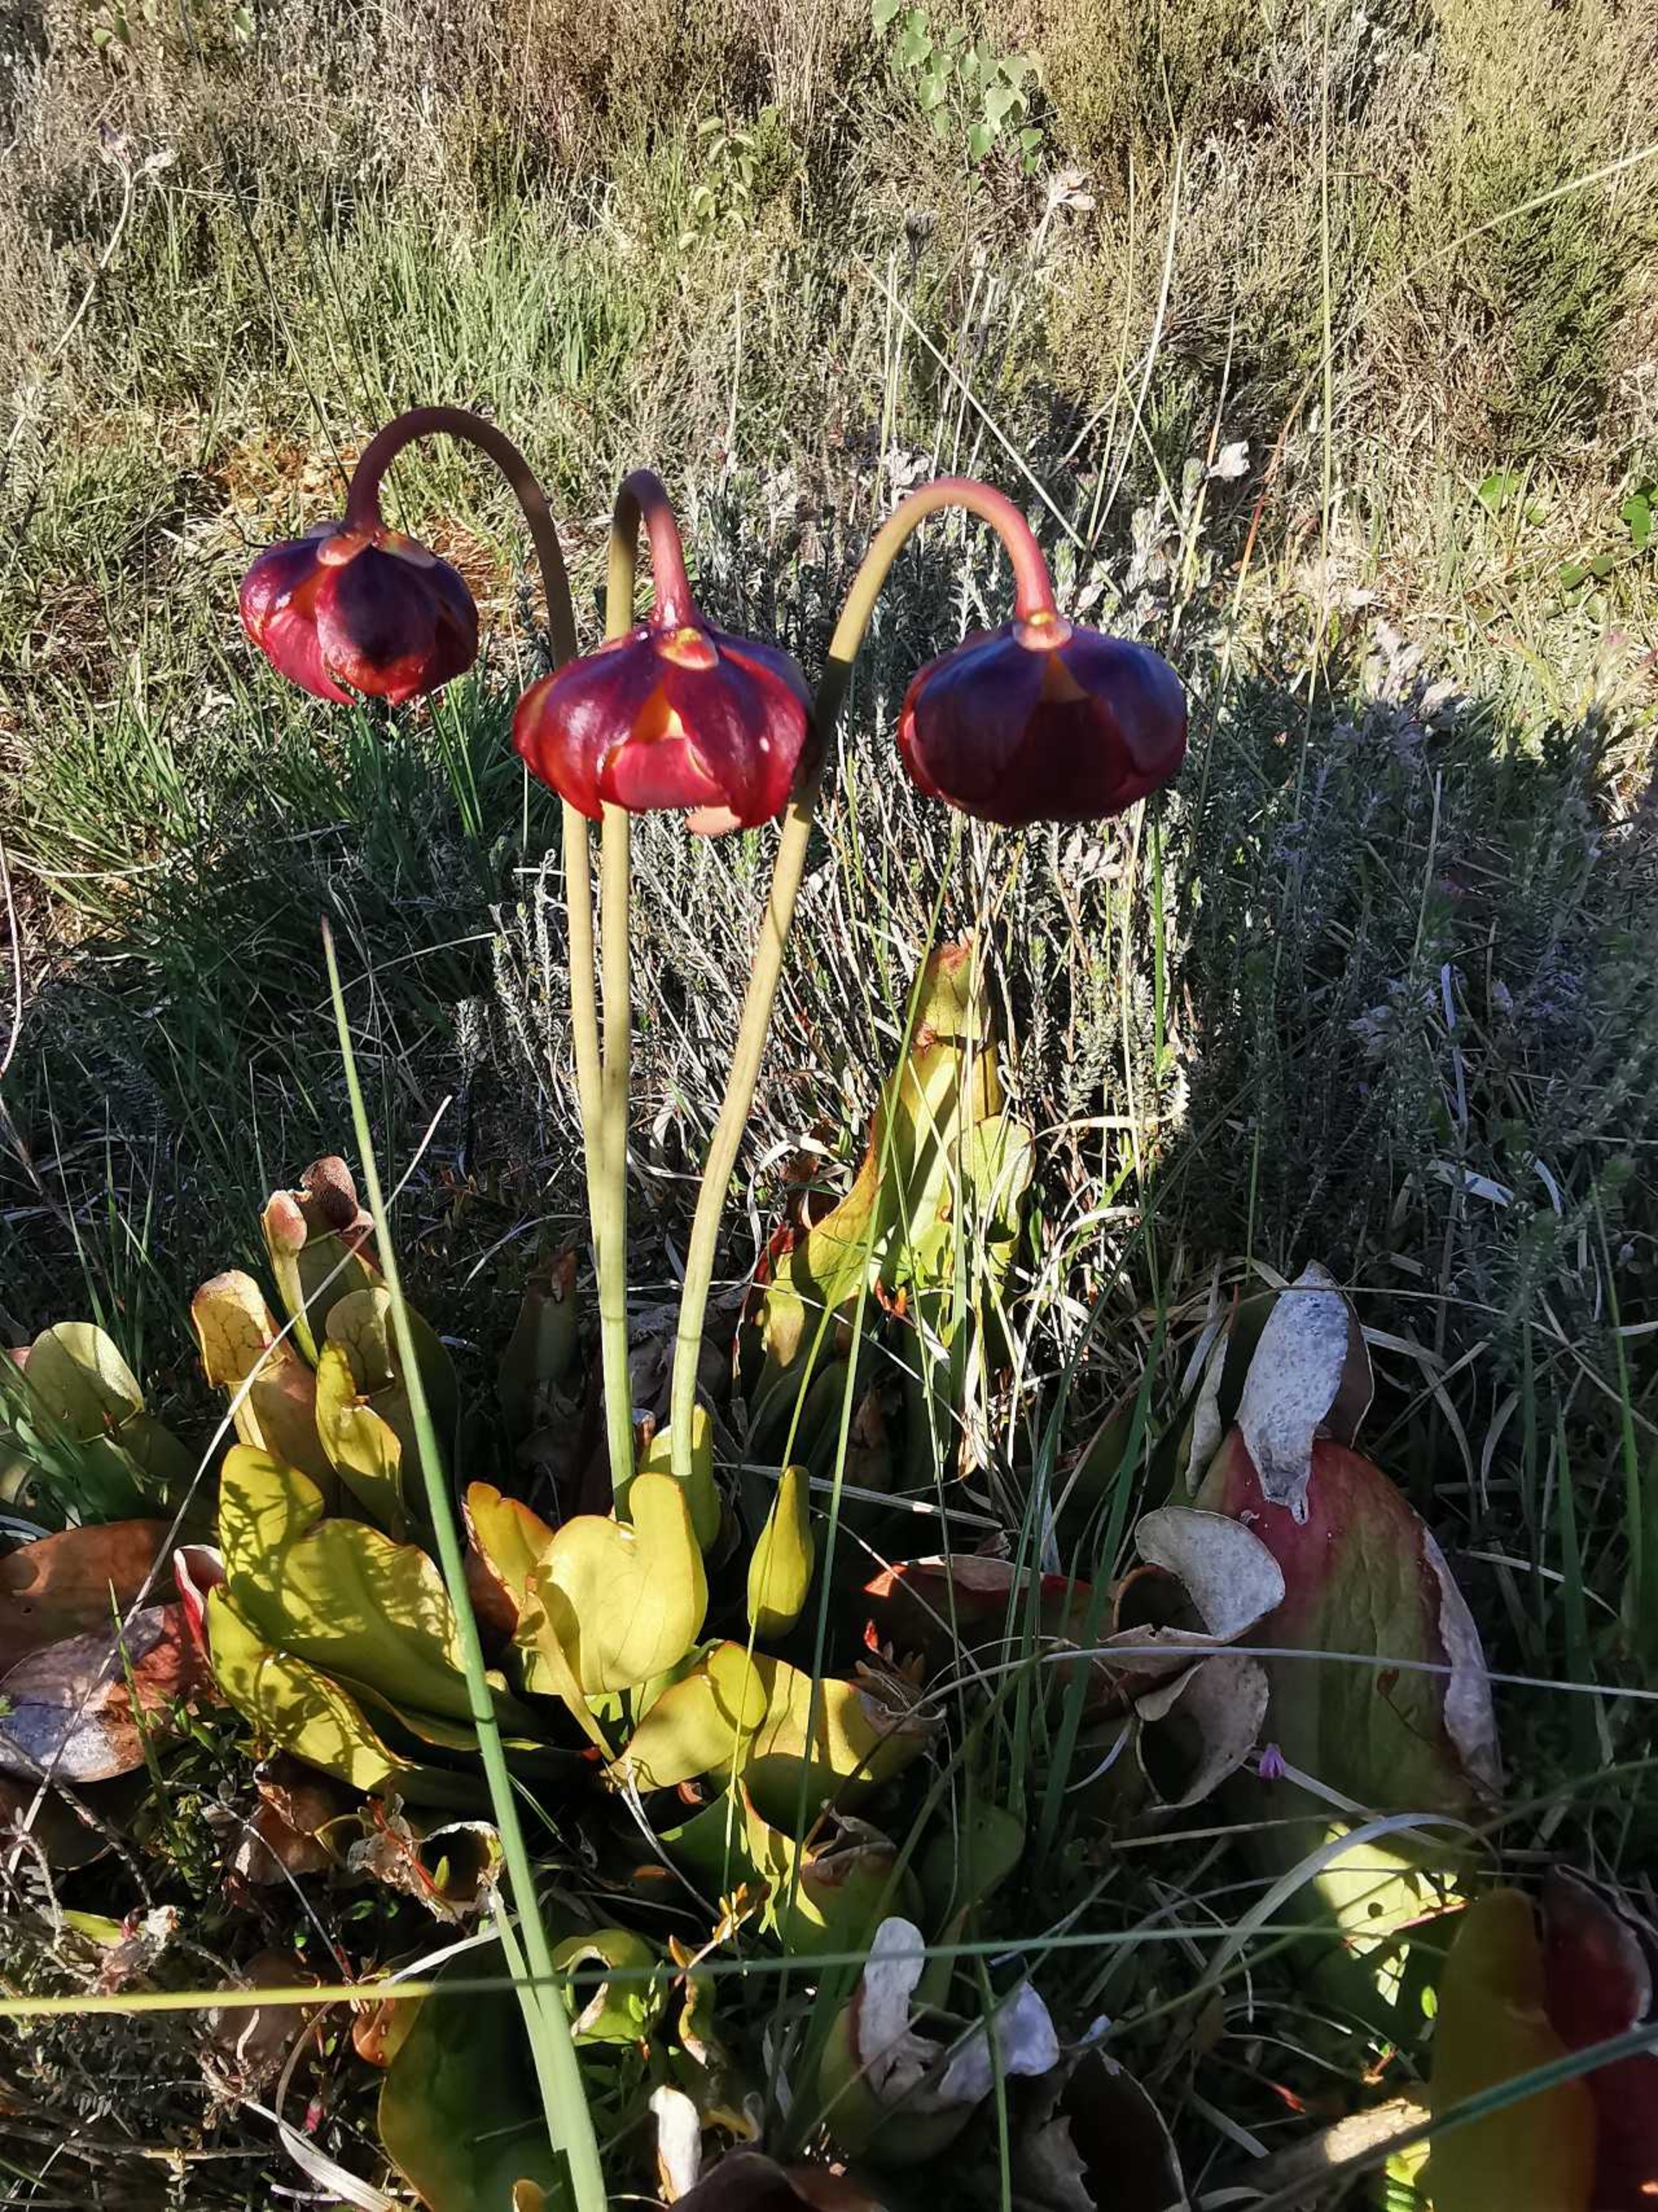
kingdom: Plantae
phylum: Tracheophyta
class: Magnoliopsida
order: Ericales
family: Sarraceniaceae
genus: Sarracenia
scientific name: Sarracenia purpurea
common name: Trompetblad
